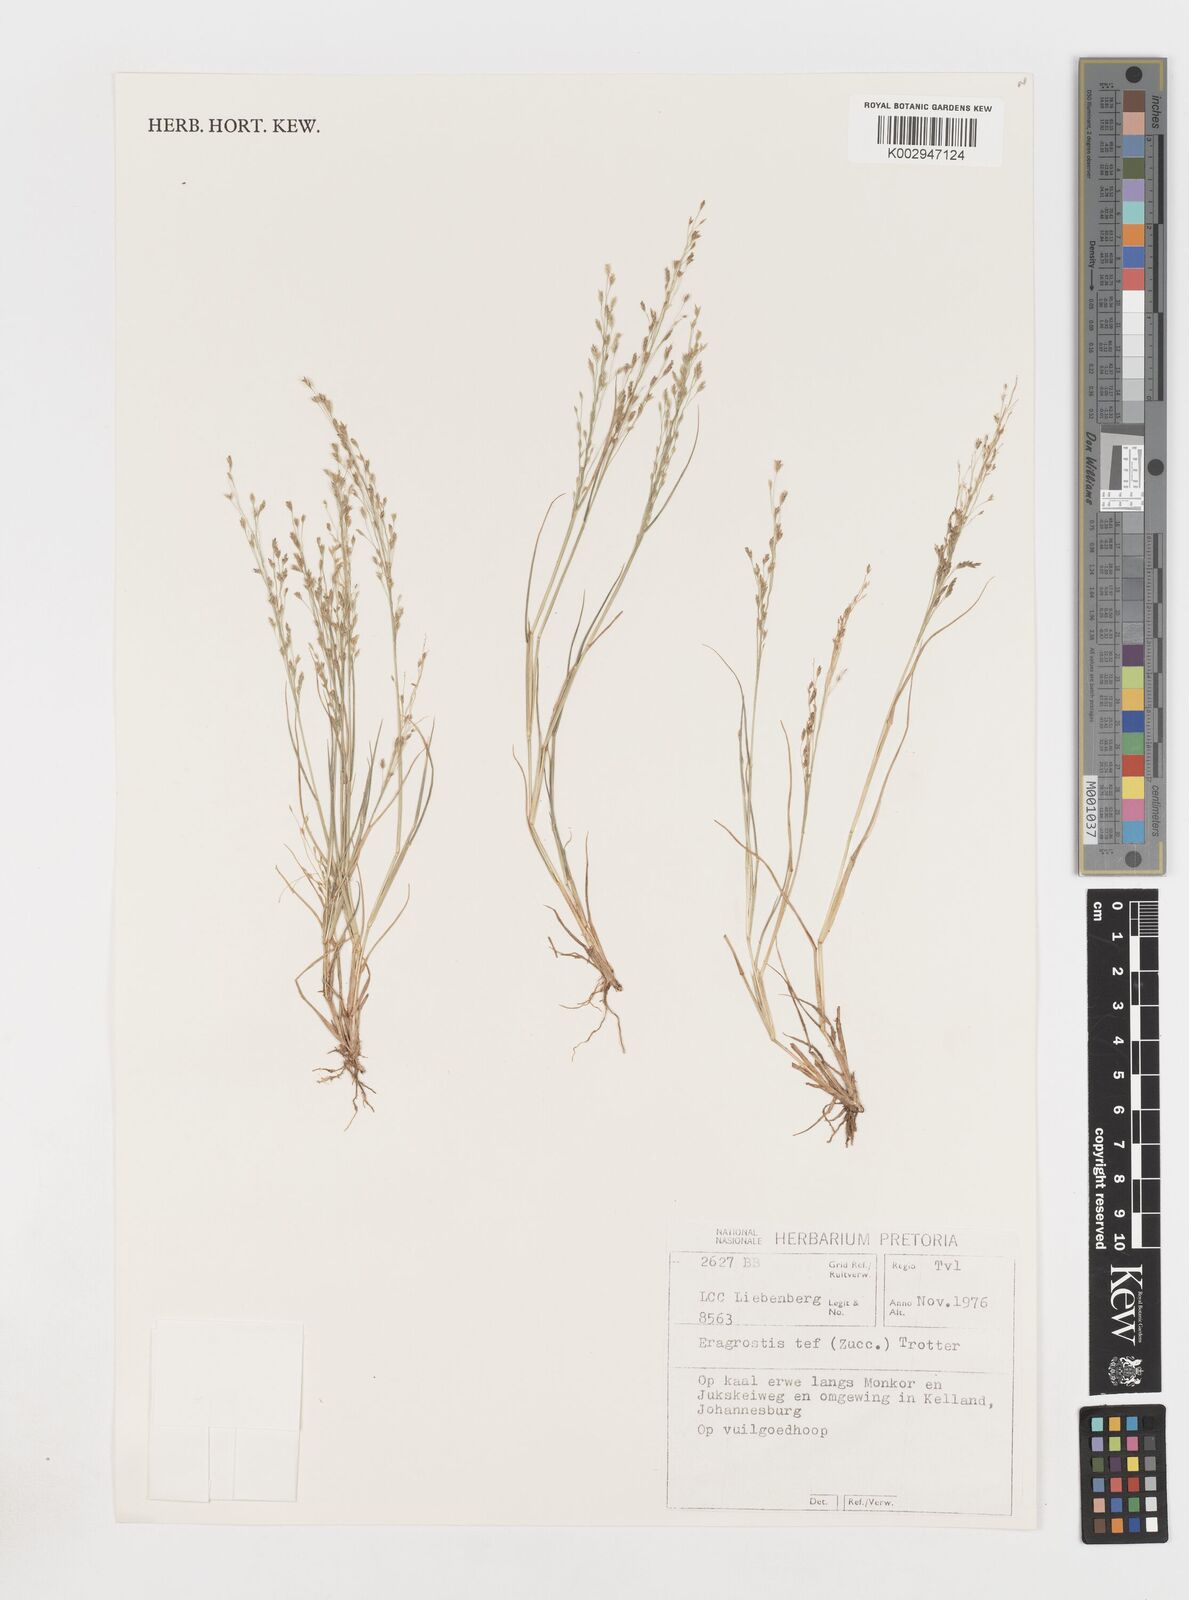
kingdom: Plantae
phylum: Tracheophyta
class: Liliopsida
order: Poales
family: Poaceae
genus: Eragrostis
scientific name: Eragrostis tef
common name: Teff
